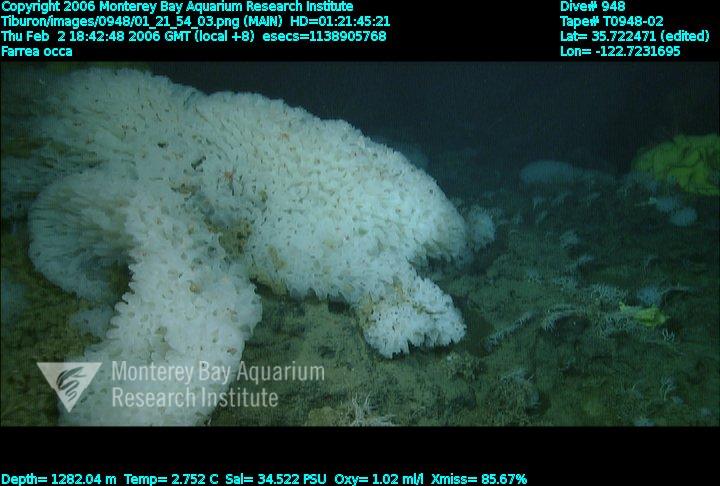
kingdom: Animalia
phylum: Porifera
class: Hexactinellida
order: Sceptrulophora
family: Farreidae
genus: Farrea
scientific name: Farrea occa
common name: Reversed glass sponge
